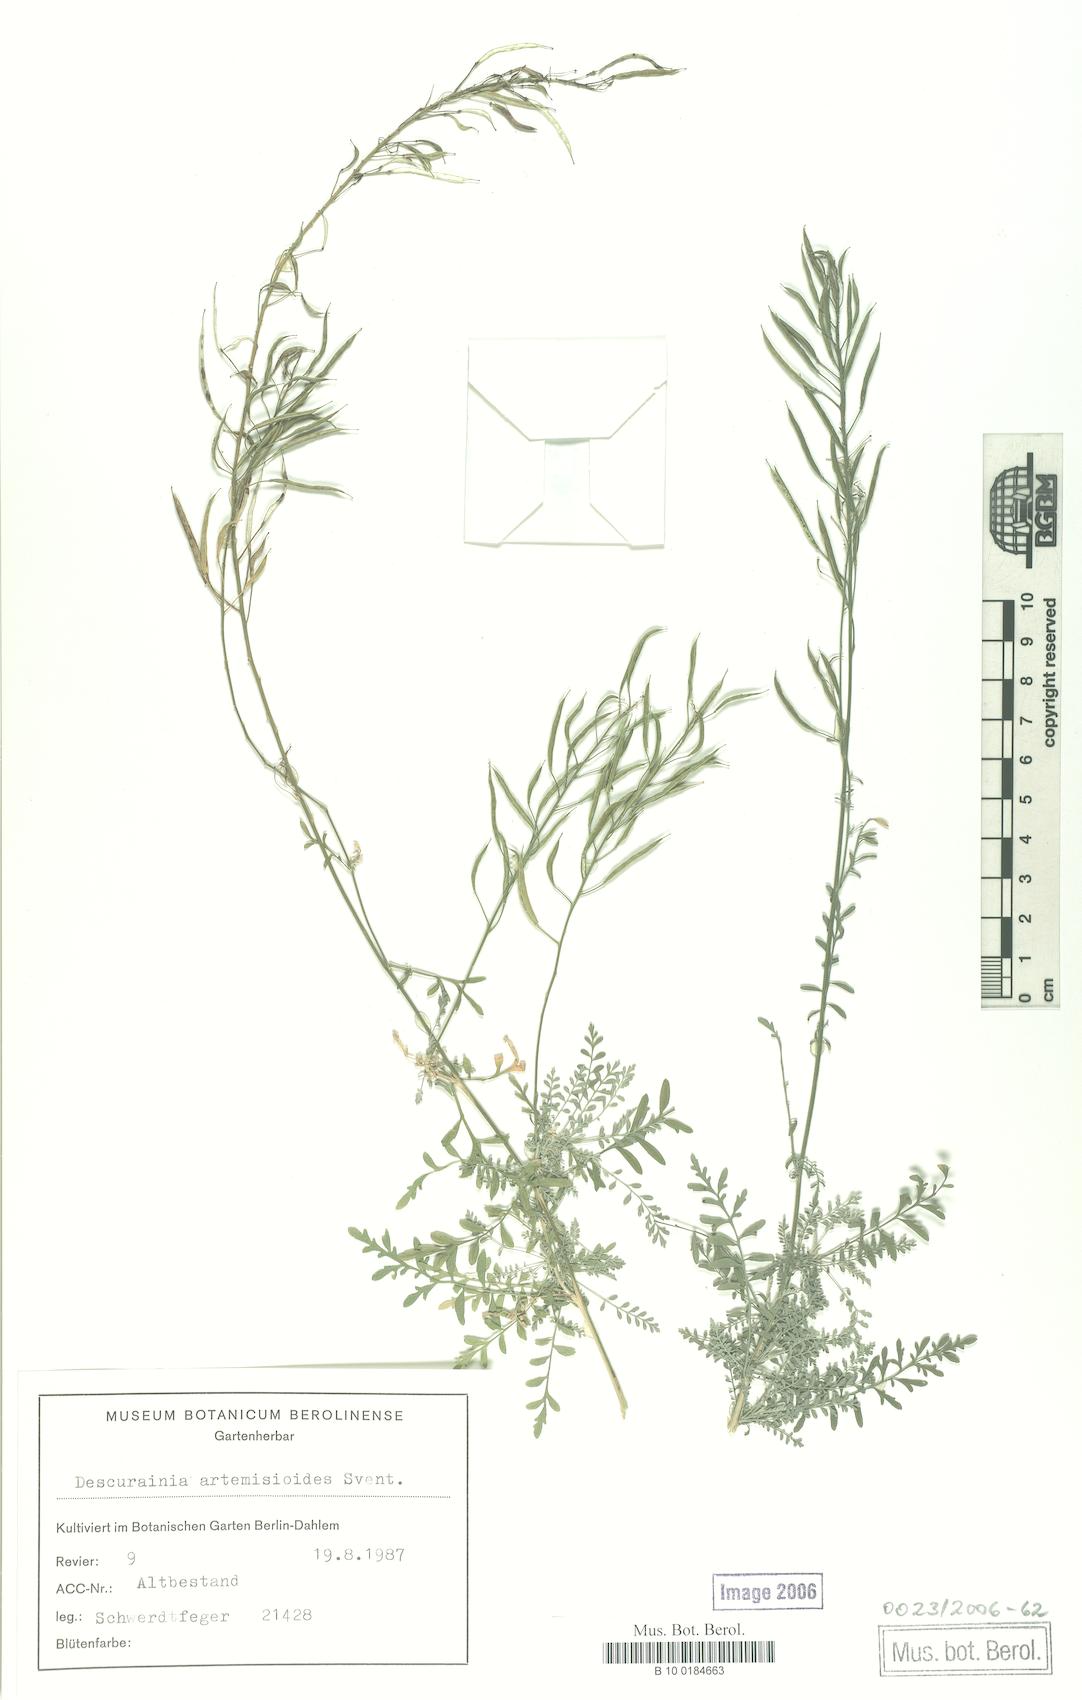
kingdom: Plantae
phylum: Tracheophyta
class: Magnoliopsida
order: Brassicales
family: Brassicaceae
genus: Descurainia
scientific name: Descurainia artemisioides
